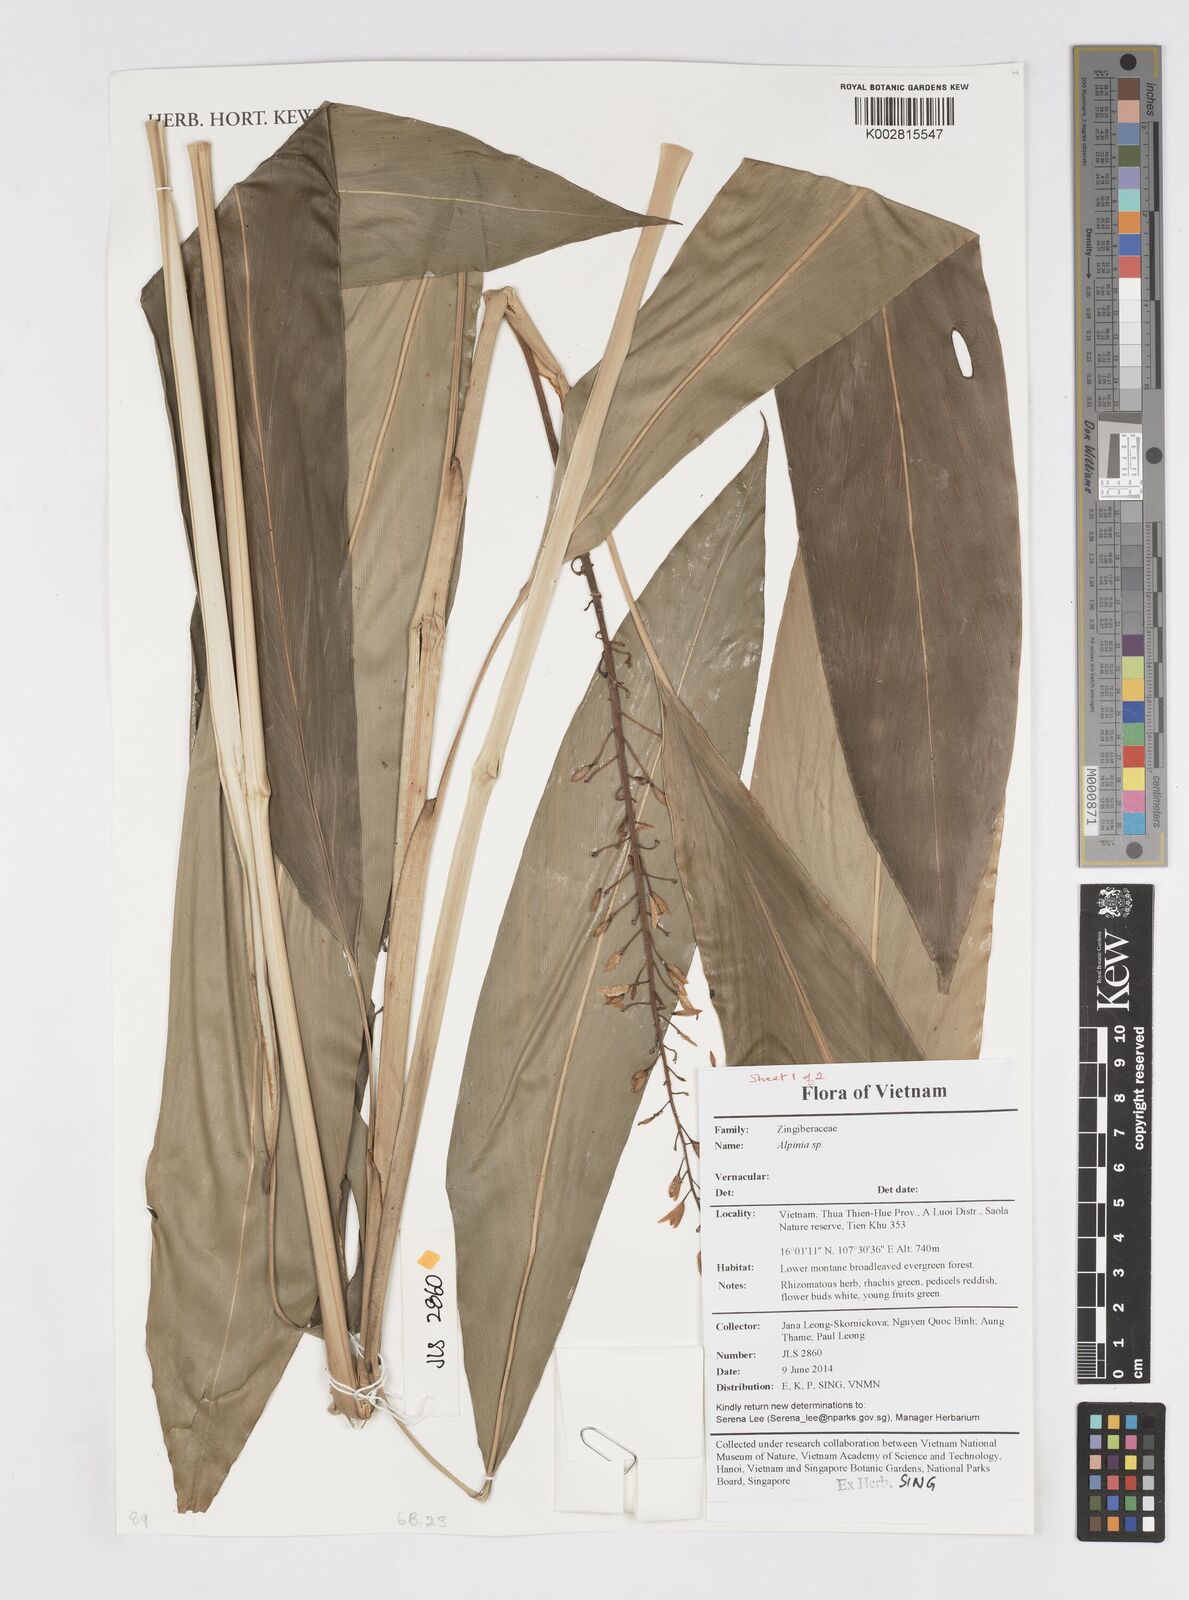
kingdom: Plantae
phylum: Tracheophyta
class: Liliopsida
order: Zingiberales
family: Zingiberaceae
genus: Alpinia
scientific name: Alpinia
